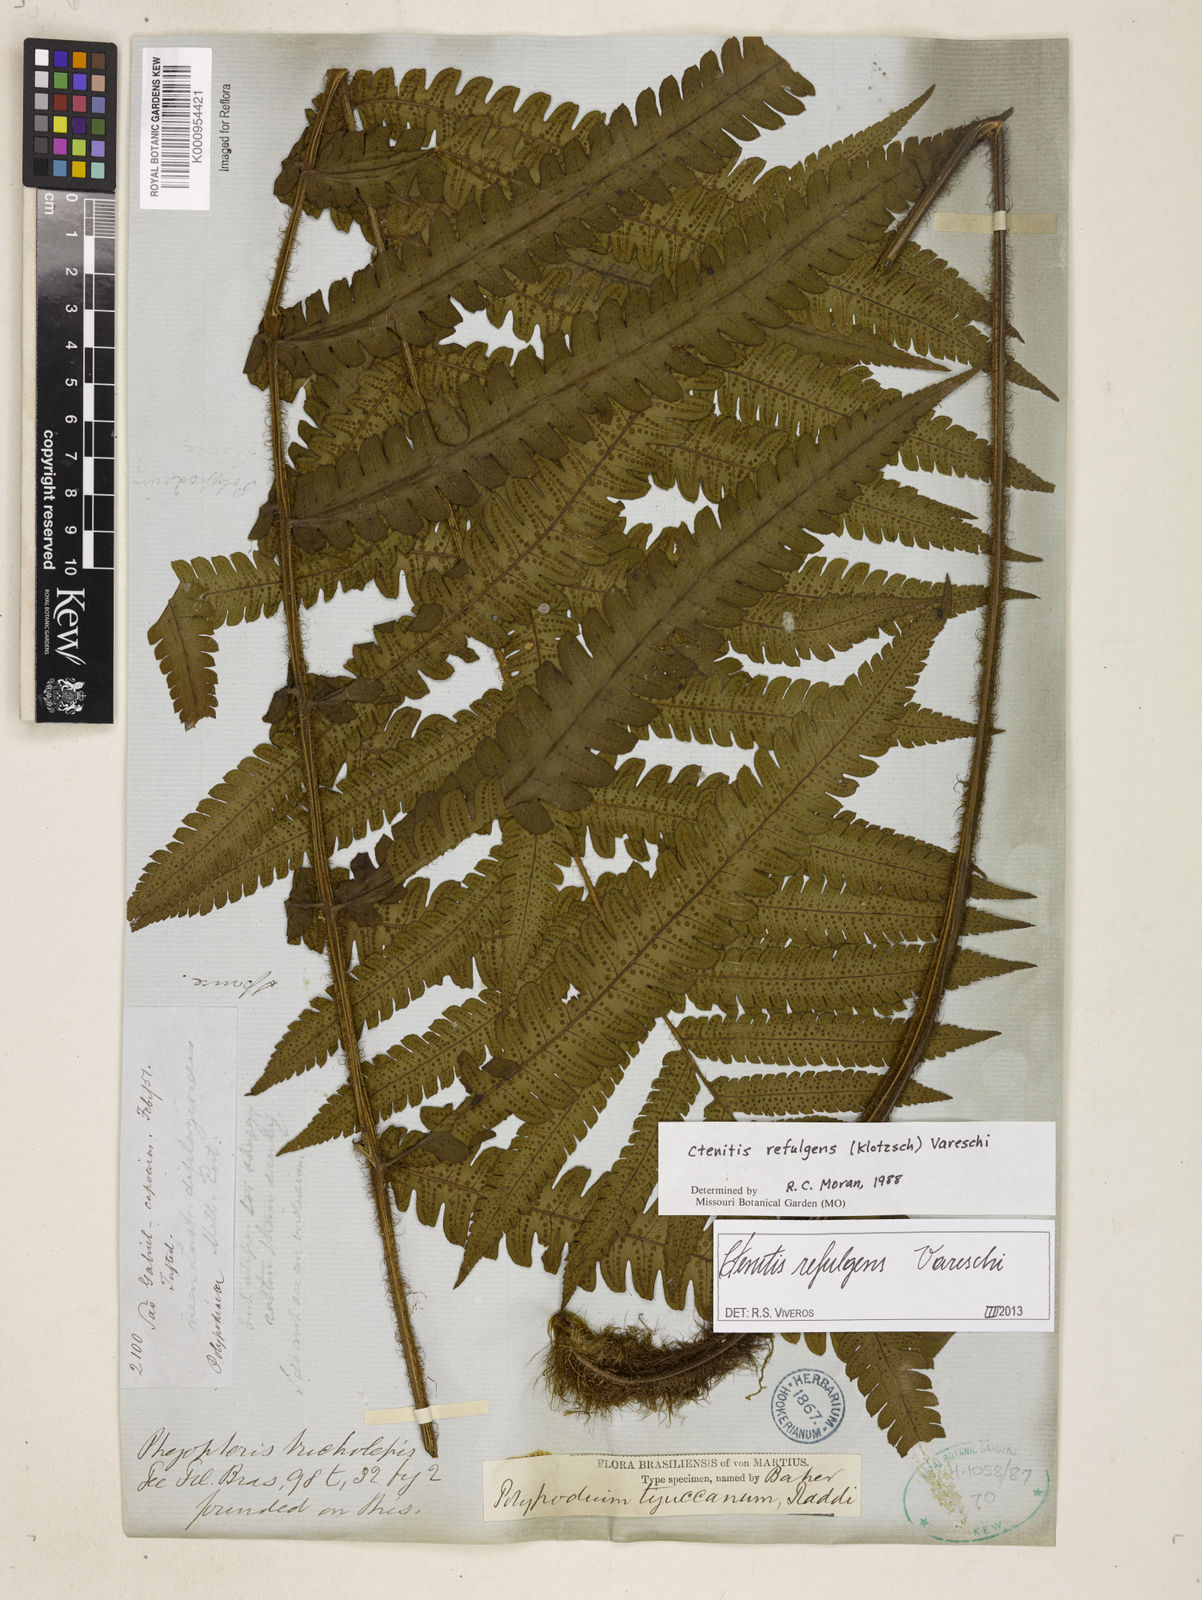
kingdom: Plantae
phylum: Tracheophyta
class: Polypodiopsida
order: Polypodiales
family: Dryopteridaceae
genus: Ctenitis
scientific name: Ctenitis refulgens
